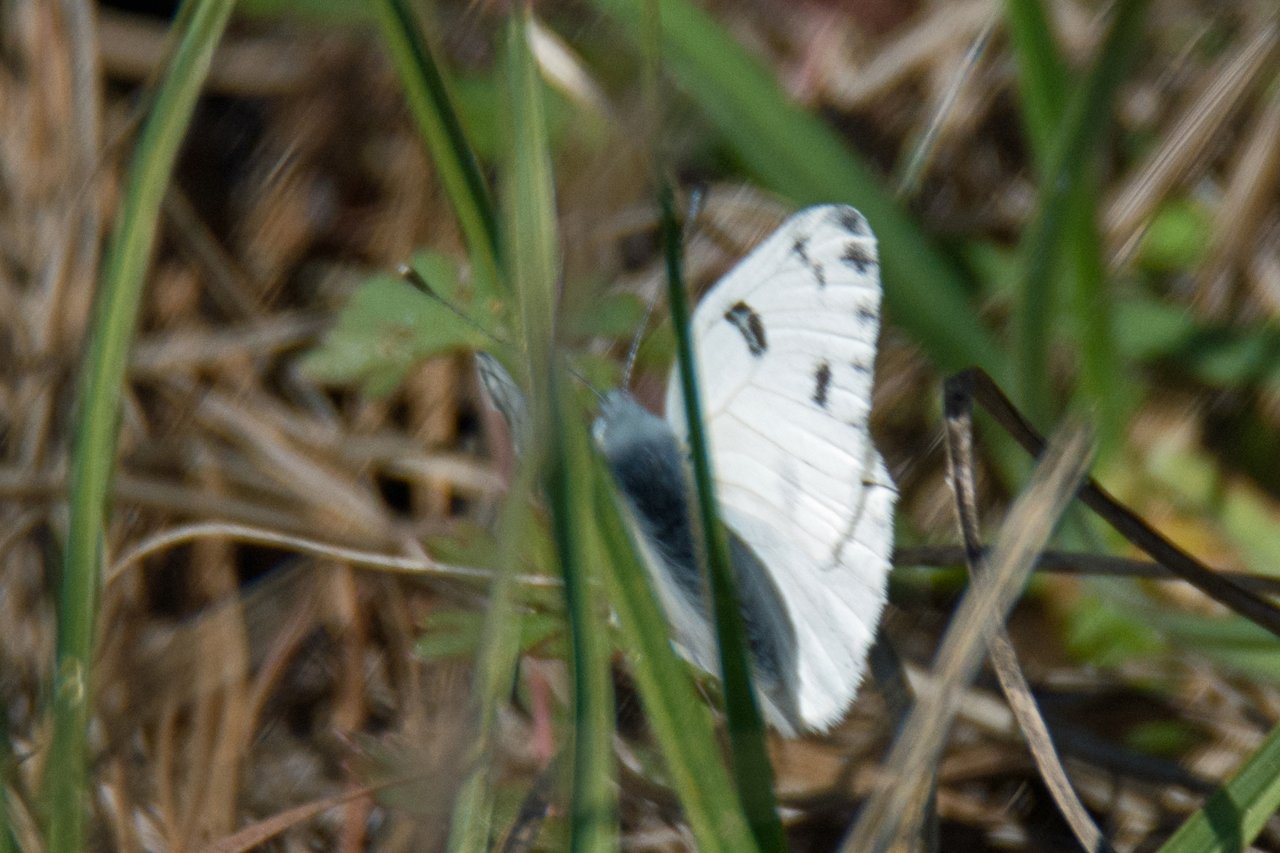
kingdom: Animalia
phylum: Arthropoda
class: Insecta
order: Lepidoptera
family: Pieridae
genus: Pontia
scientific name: Pontia protodice
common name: Checkered White
